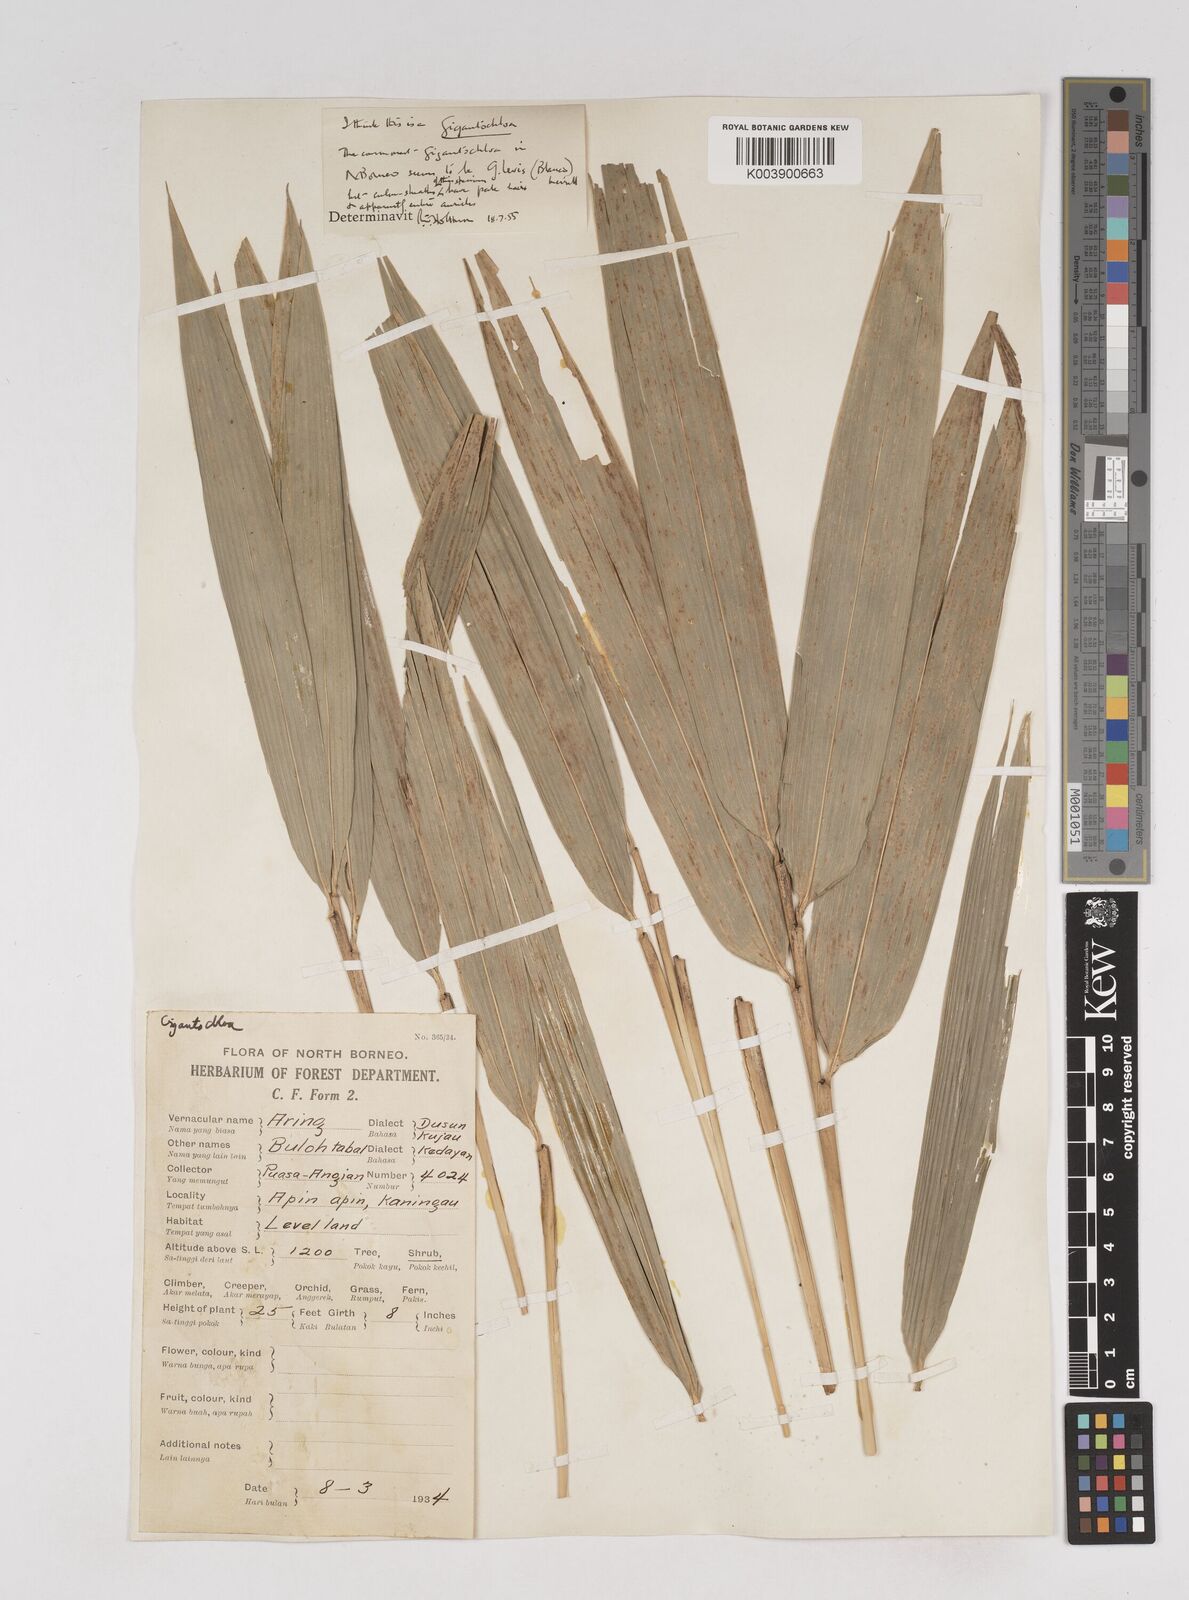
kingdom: Plantae
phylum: Tracheophyta
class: Liliopsida
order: Poales
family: Poaceae
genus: Gigantochloa
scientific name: Gigantochloa longiprophylla
